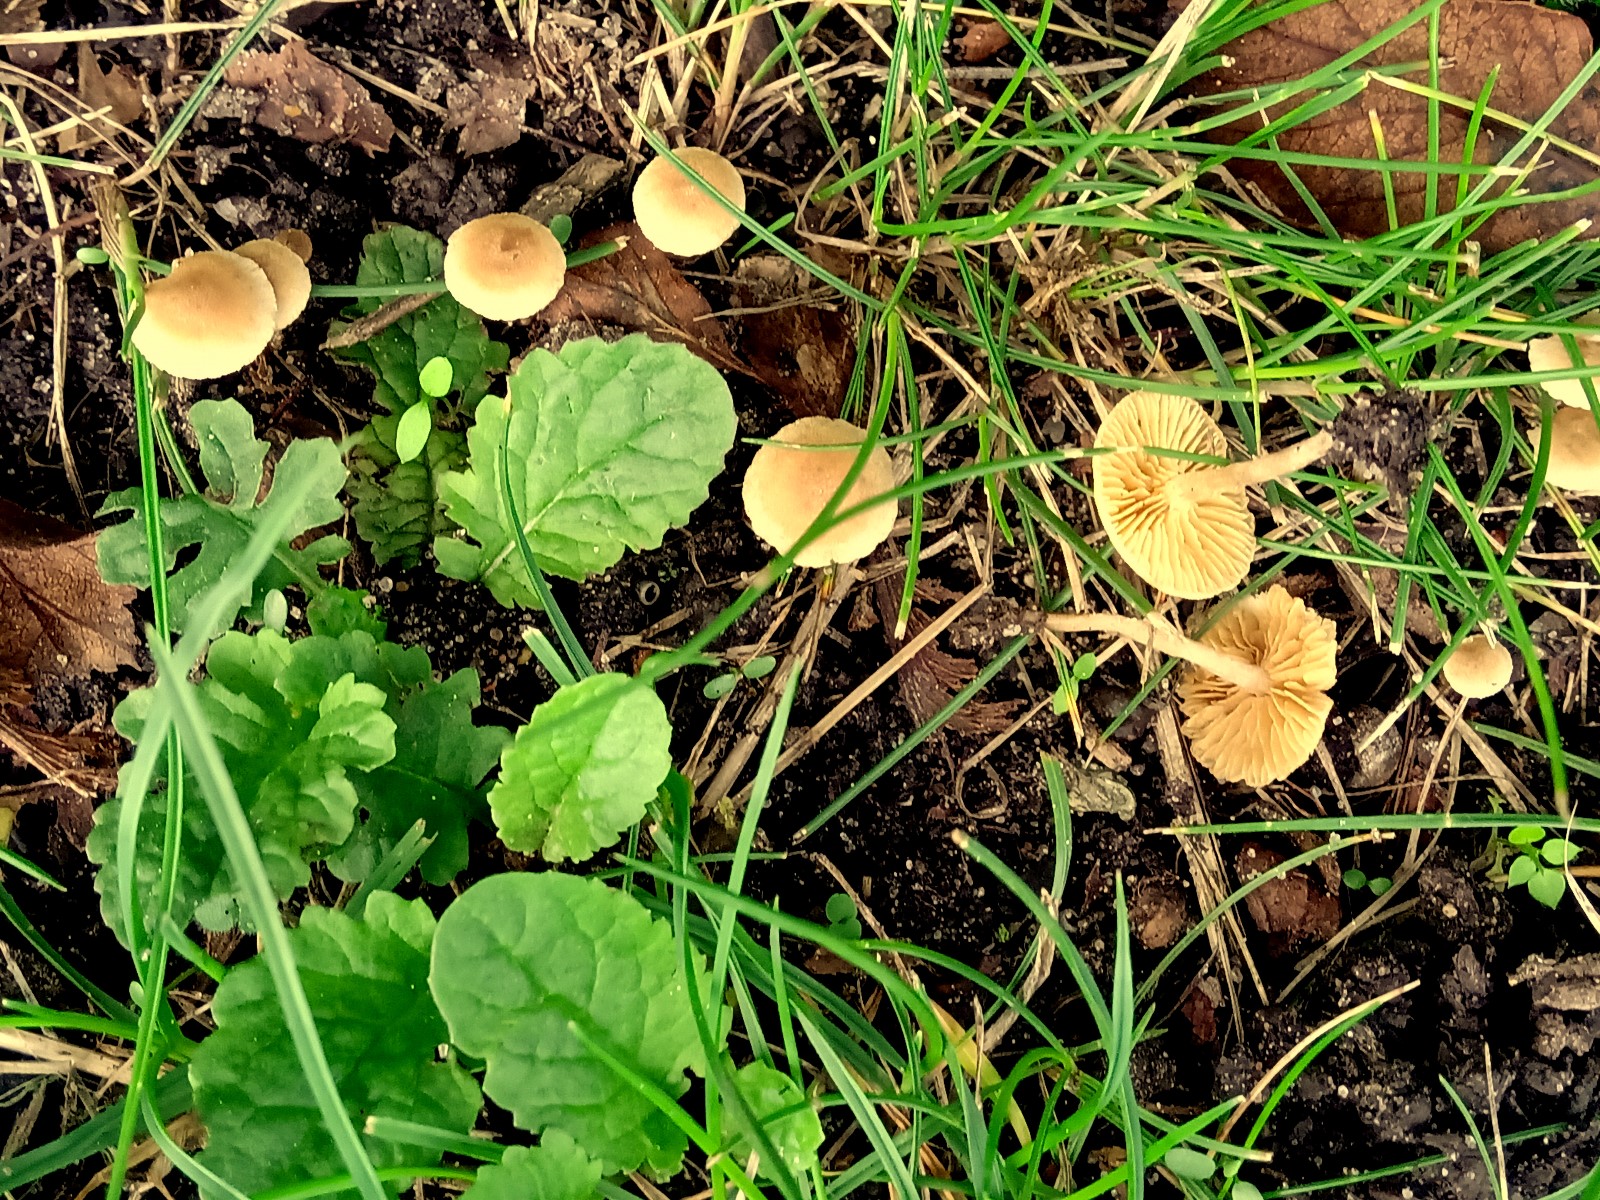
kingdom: Fungi
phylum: Basidiomycota
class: Agaricomycetes
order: Agaricales
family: Tubariaceae
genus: Tubaria
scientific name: Tubaria dispersa
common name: tjørne-fnughat
